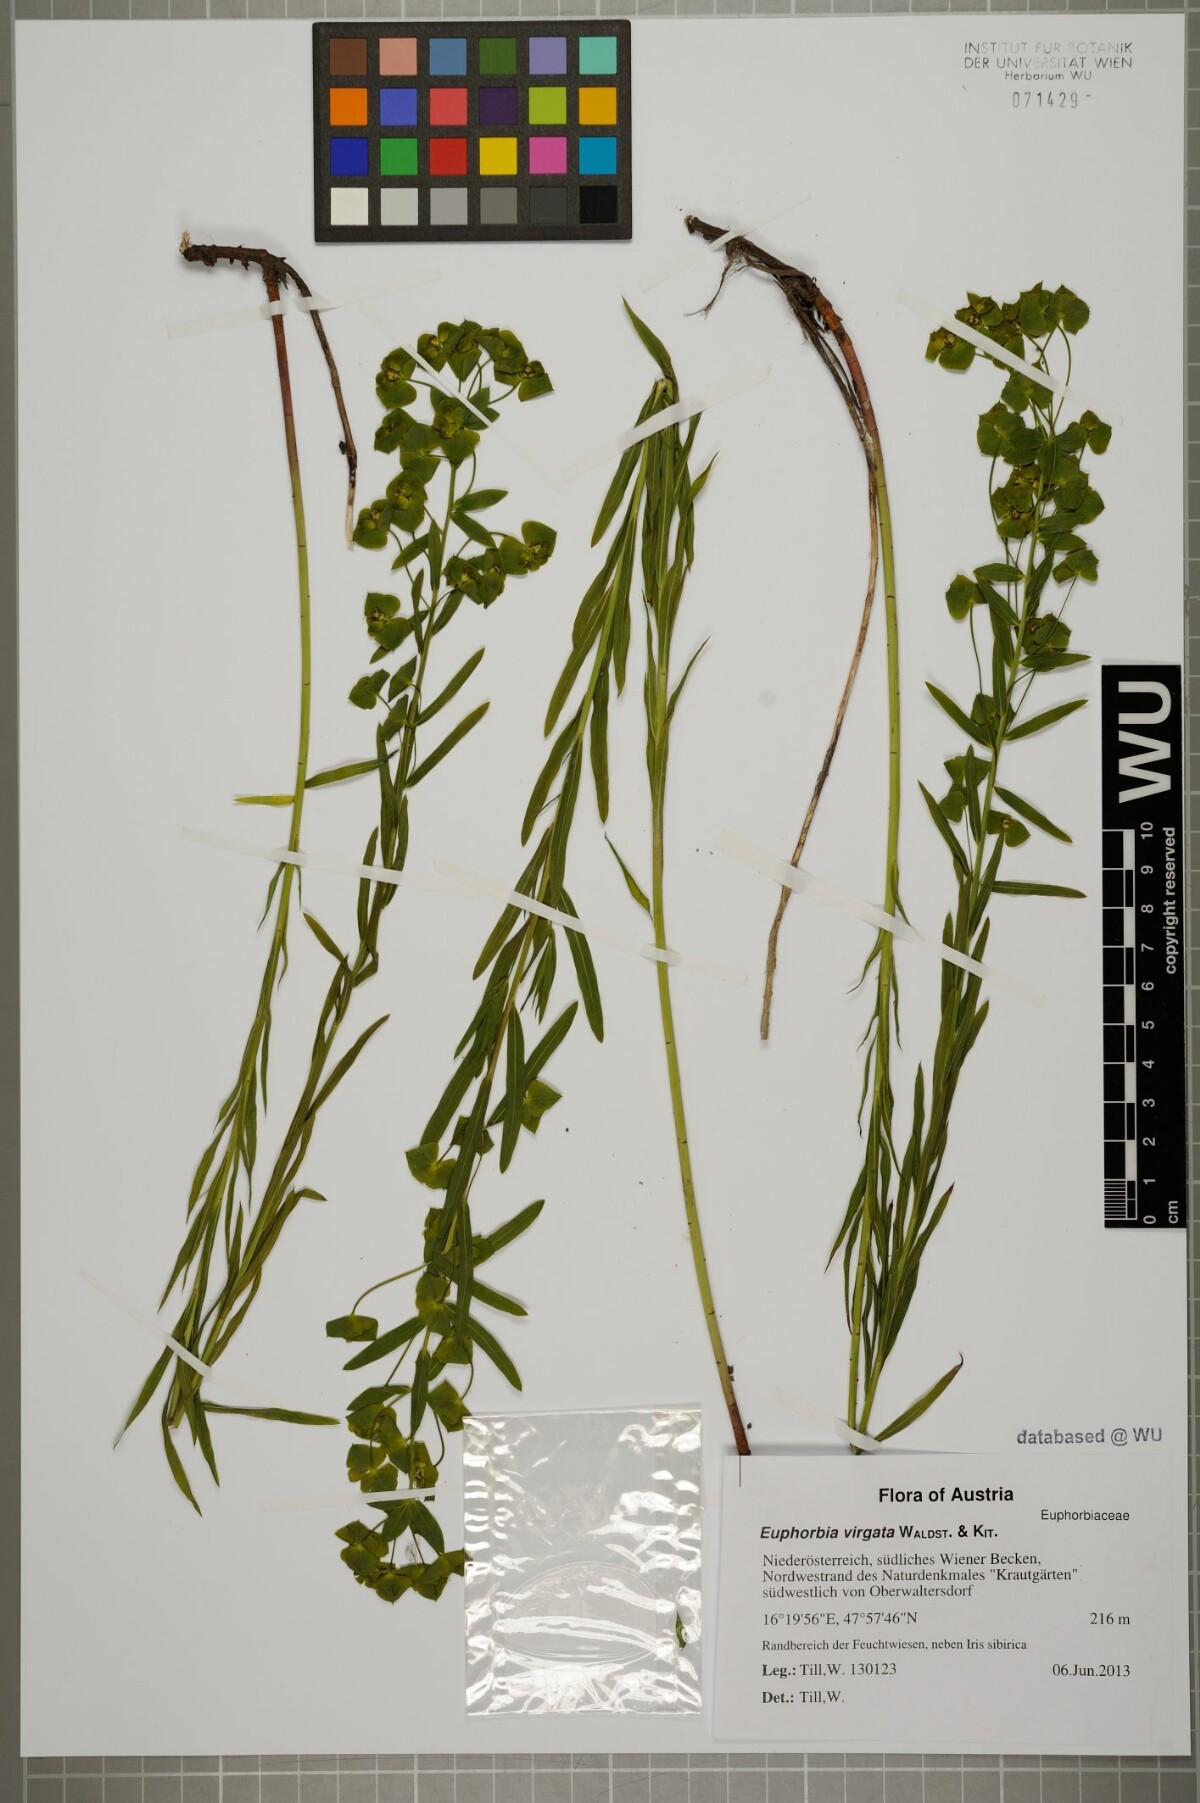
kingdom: Plantae
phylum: Tracheophyta
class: Magnoliopsida
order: Malpighiales
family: Euphorbiaceae
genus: Euphorbia
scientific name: Euphorbia virgata
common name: Leafy spurge
